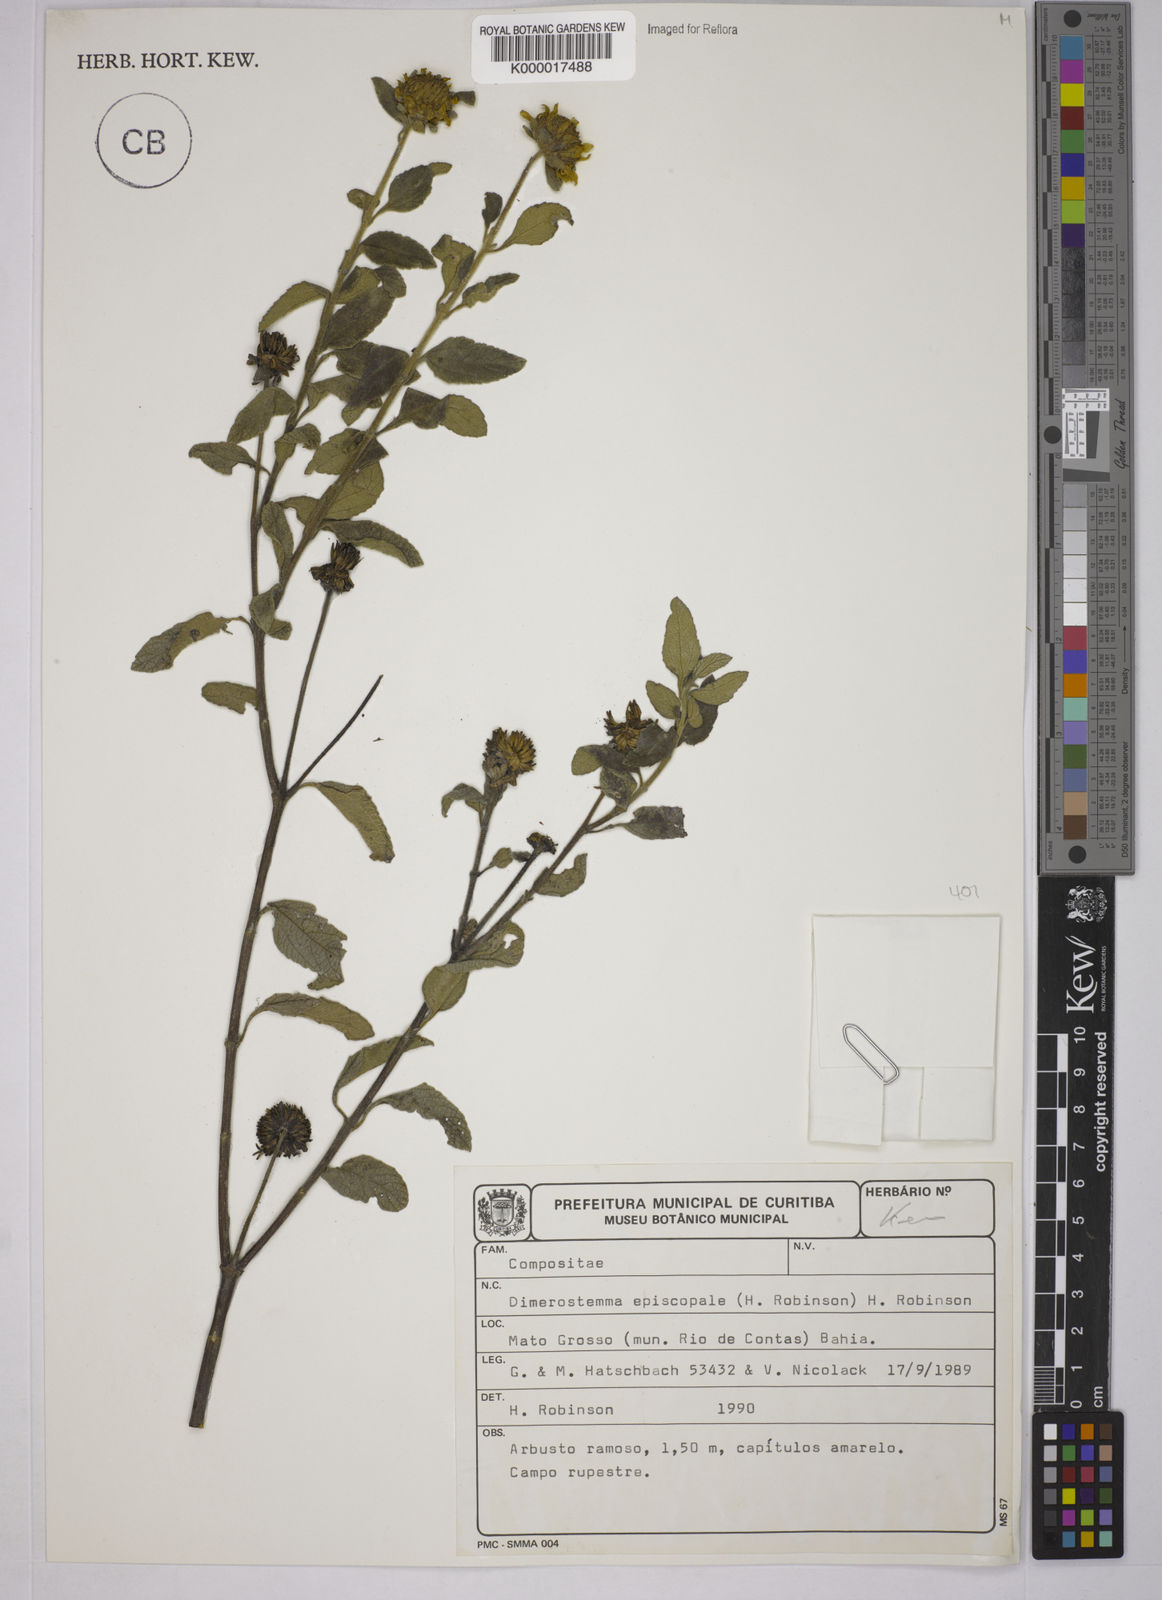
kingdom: Plantae
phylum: Tracheophyta
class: Magnoliopsida
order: Asterales
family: Asteraceae
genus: Dimerostemma
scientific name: Dimerostemma episcopale
